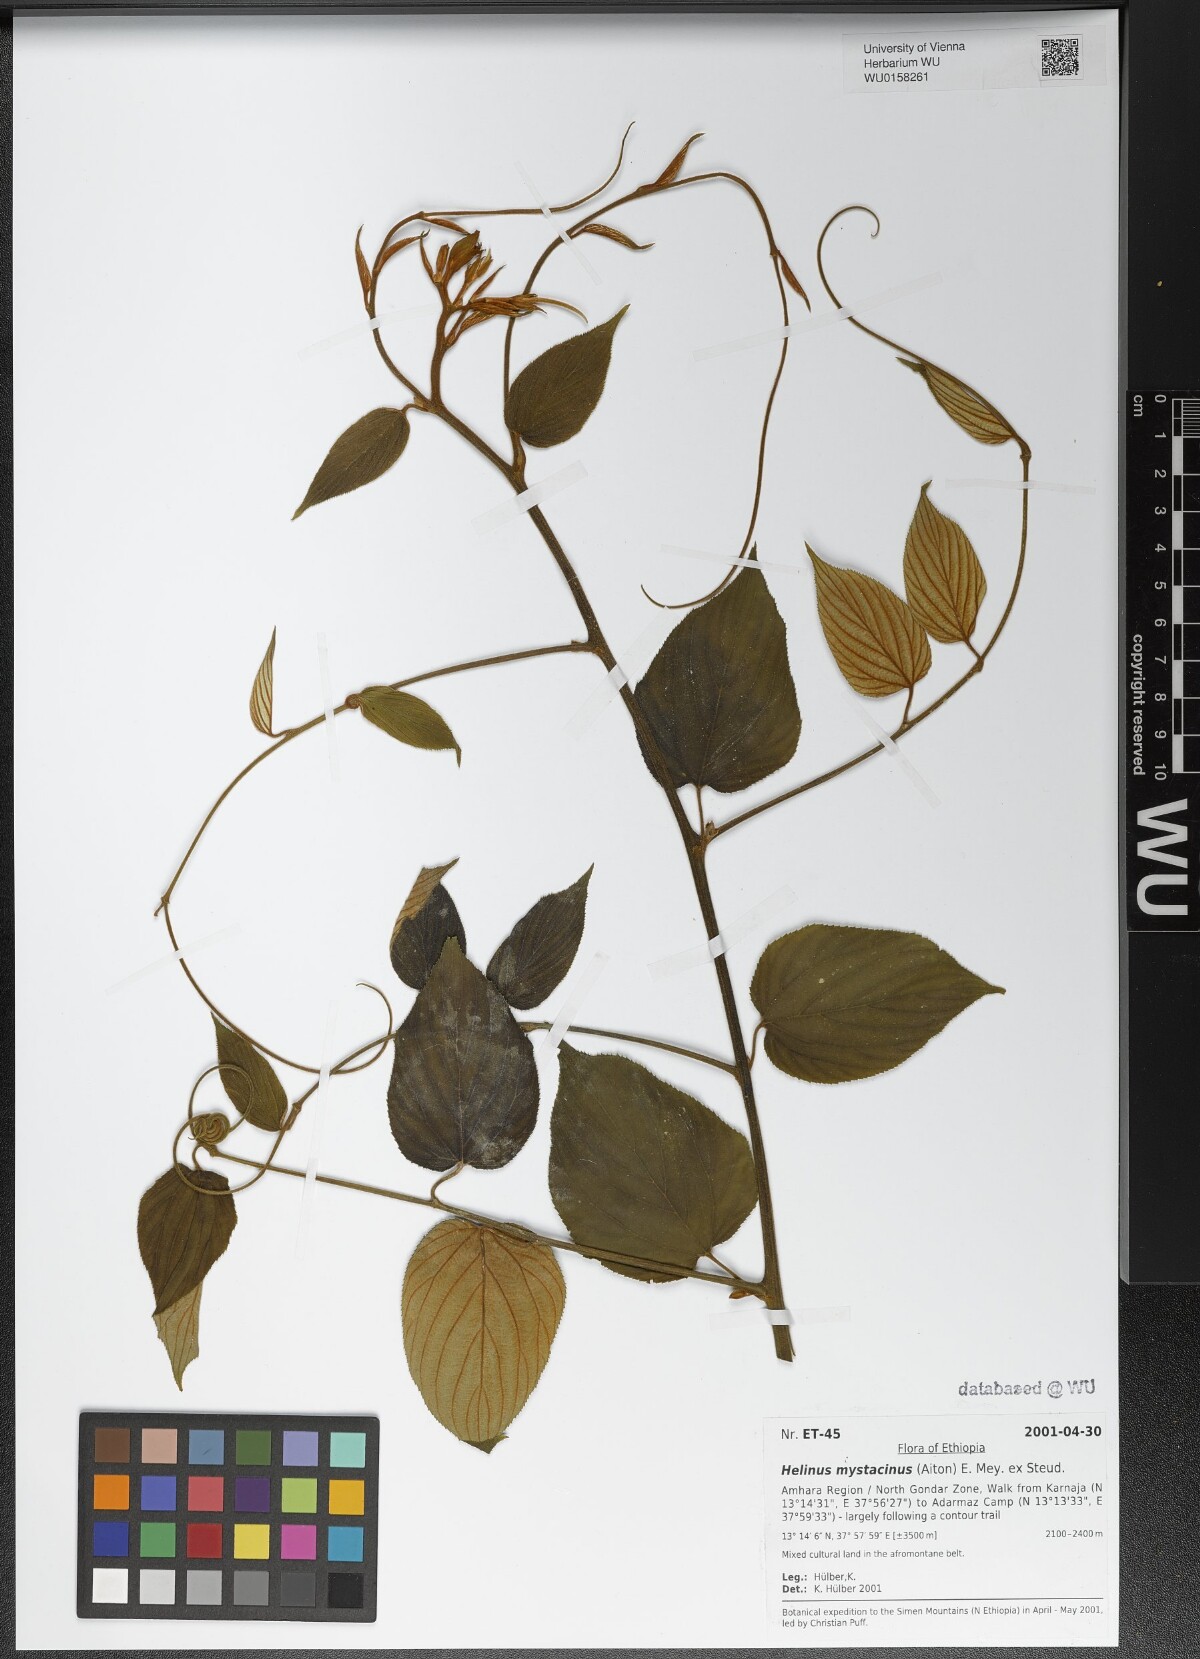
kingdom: Plantae
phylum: Tracheophyta
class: Magnoliopsida
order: Rosales
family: Rhamnaceae
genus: Helinus
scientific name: Helinus mystacinus
